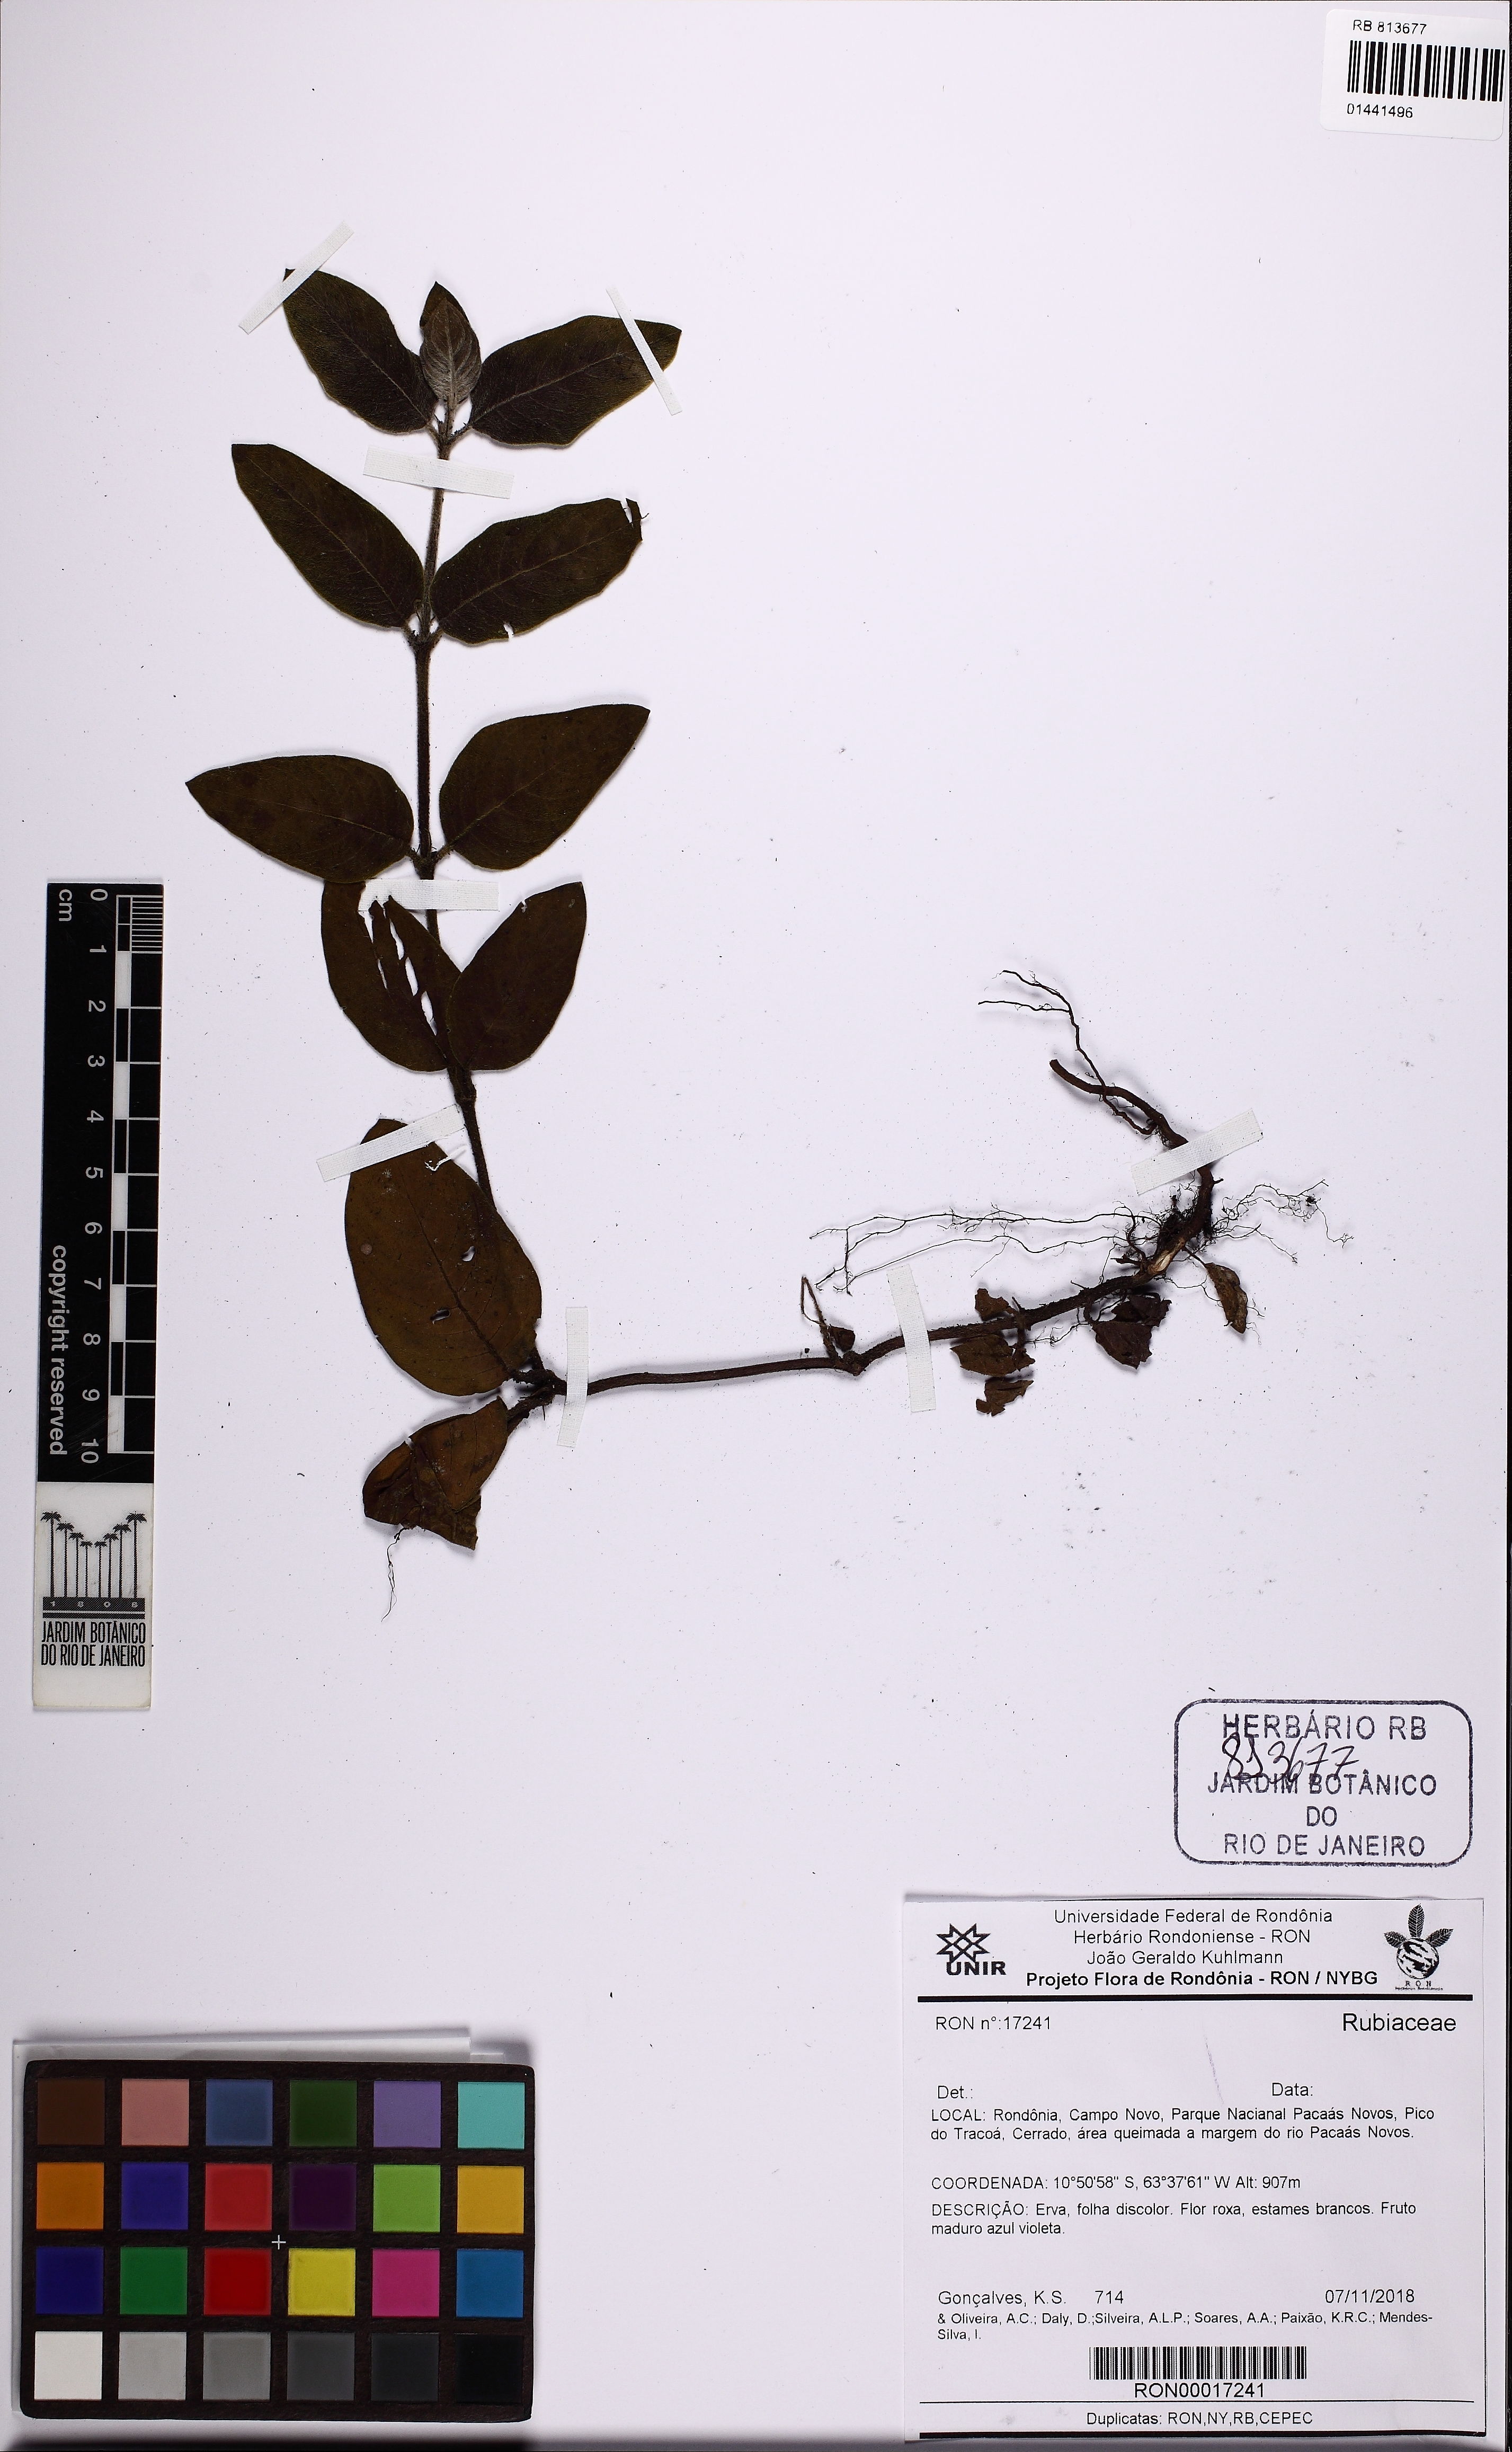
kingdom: Plantae
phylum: Tracheophyta
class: Magnoliopsida
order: Gentianales
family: Rubiaceae
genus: Coccocypselum
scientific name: Coccocypselum lanceolatum
